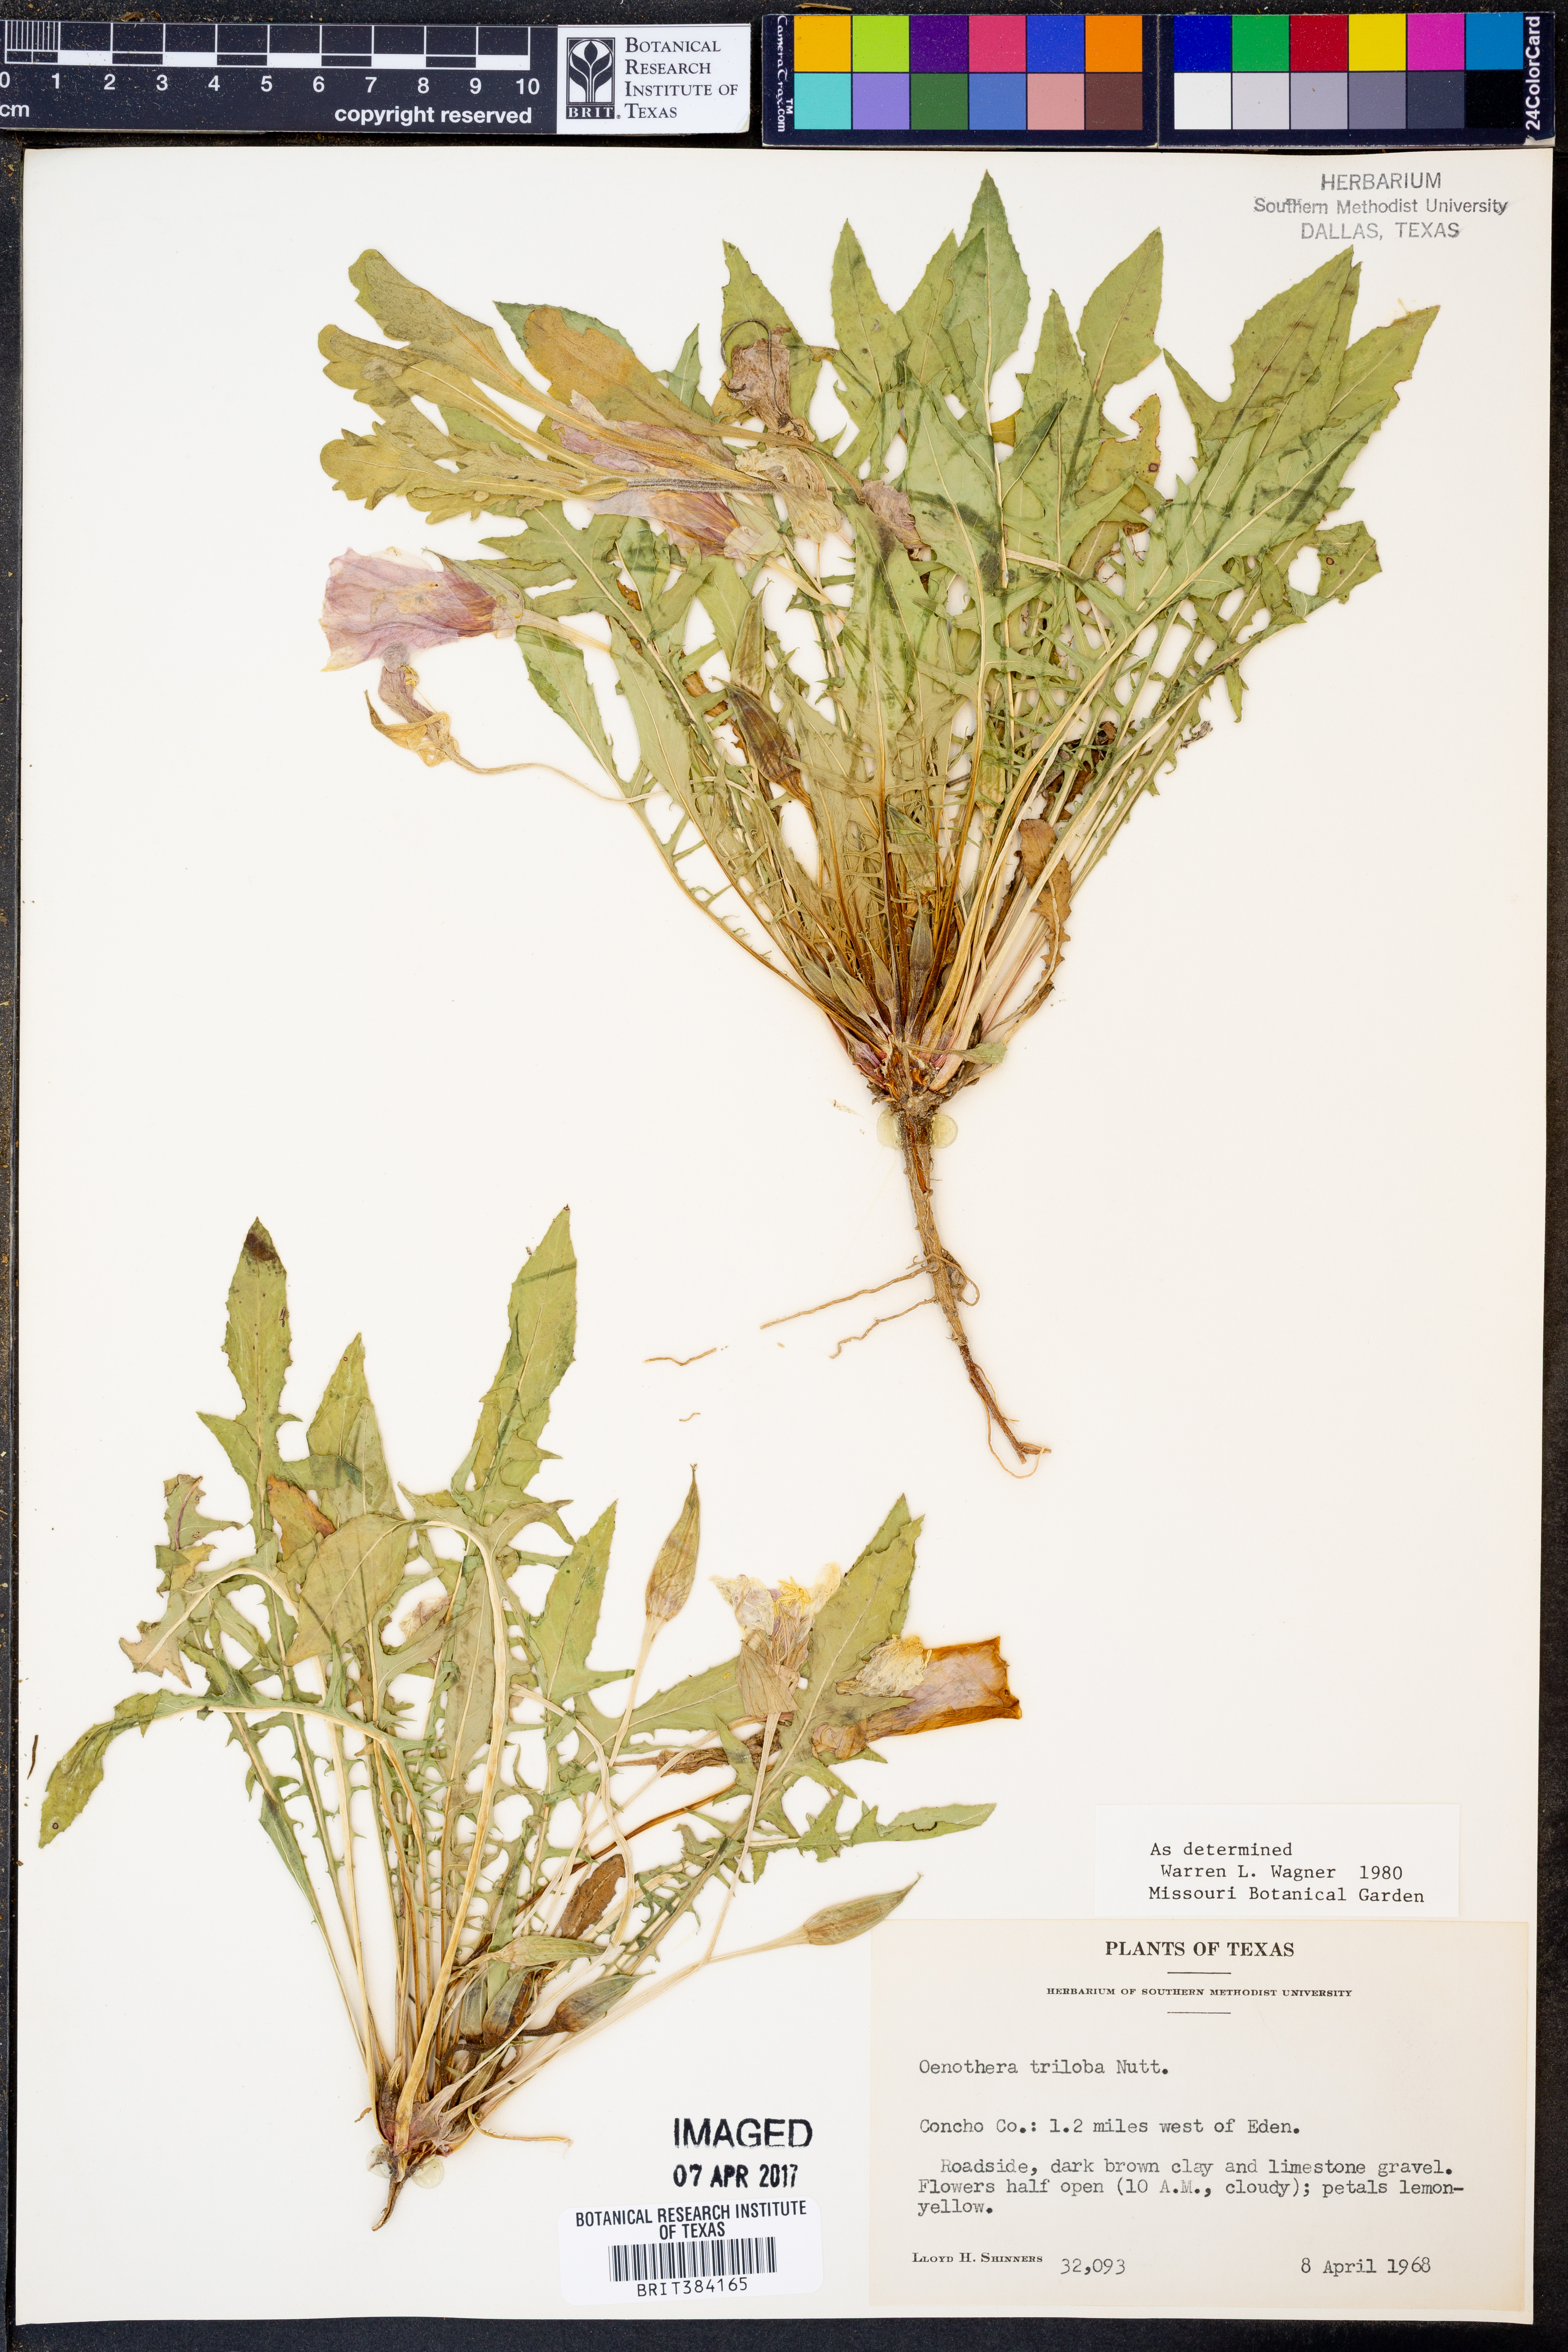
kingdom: Plantae
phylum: Tracheophyta
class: Magnoliopsida
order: Myrtales
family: Onagraceae
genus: Oenothera
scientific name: Oenothera triloba
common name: Sessile evening-primrose
